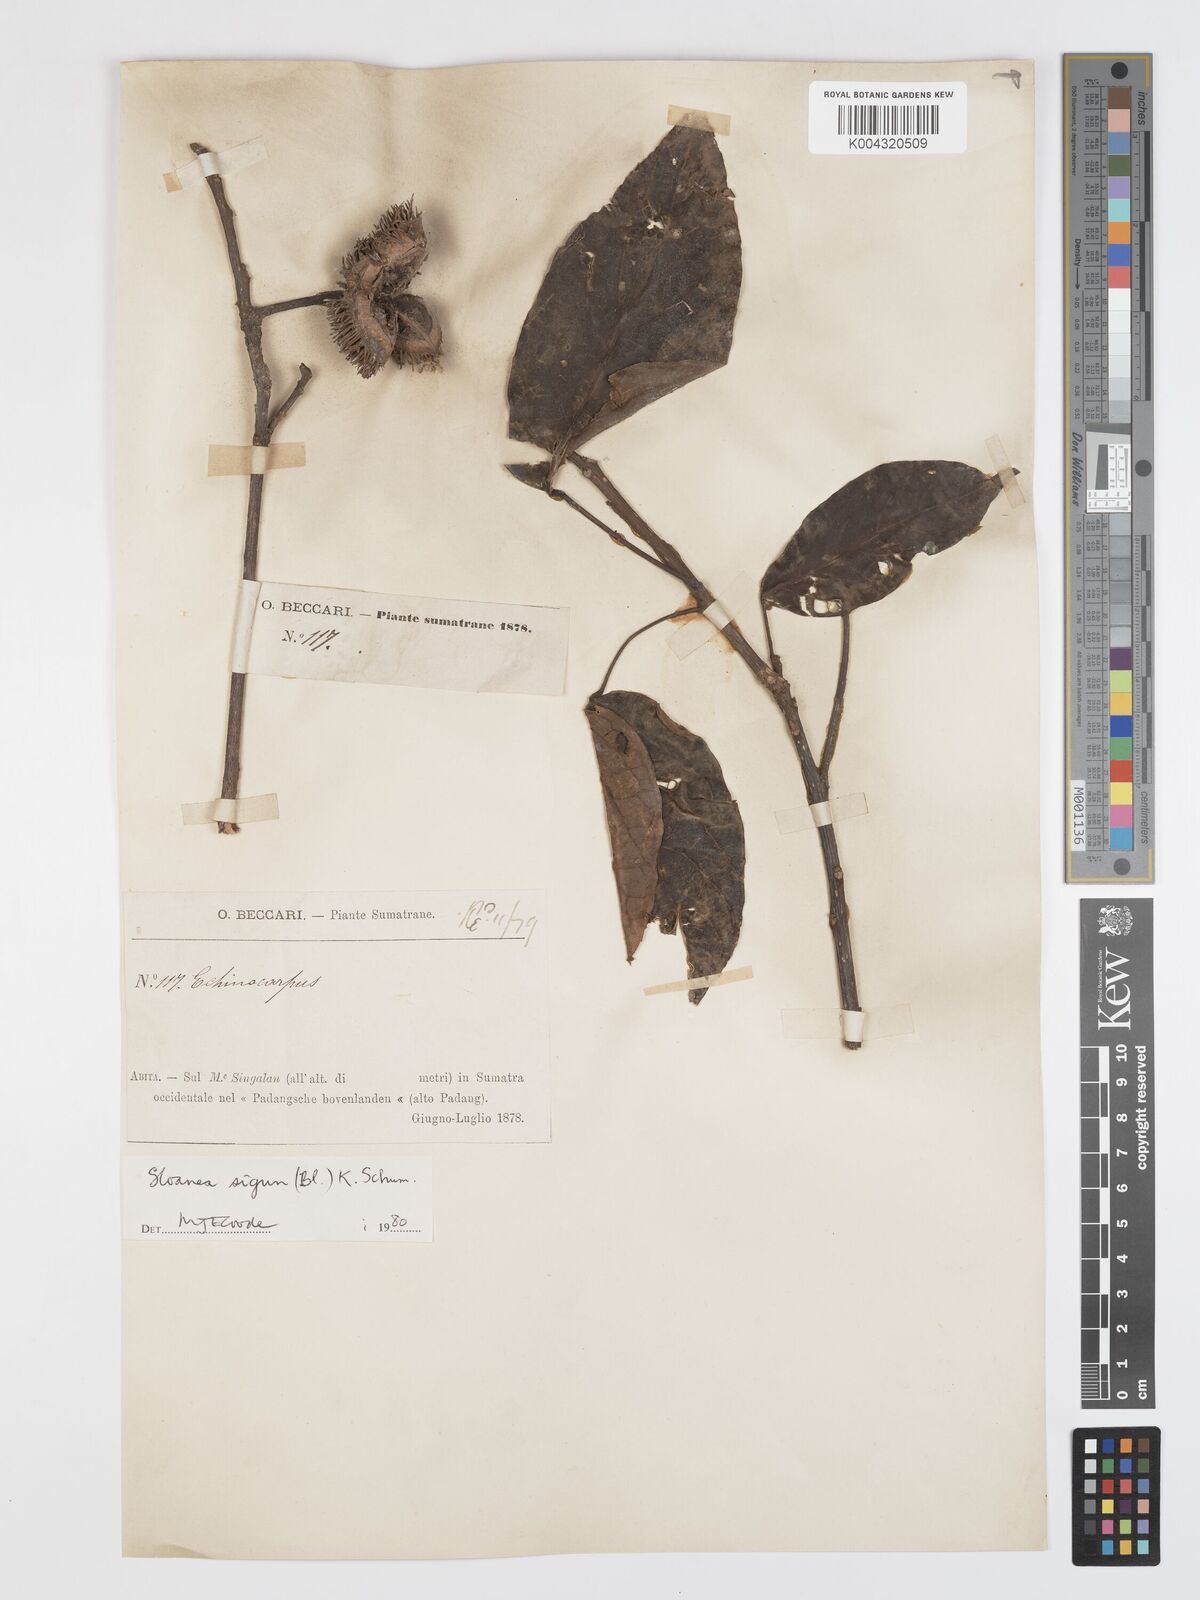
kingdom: Plantae
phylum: Tracheophyta
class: Magnoliopsida
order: Oxalidales
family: Elaeocarpaceae
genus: Sloanea
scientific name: Sloanea sigun
